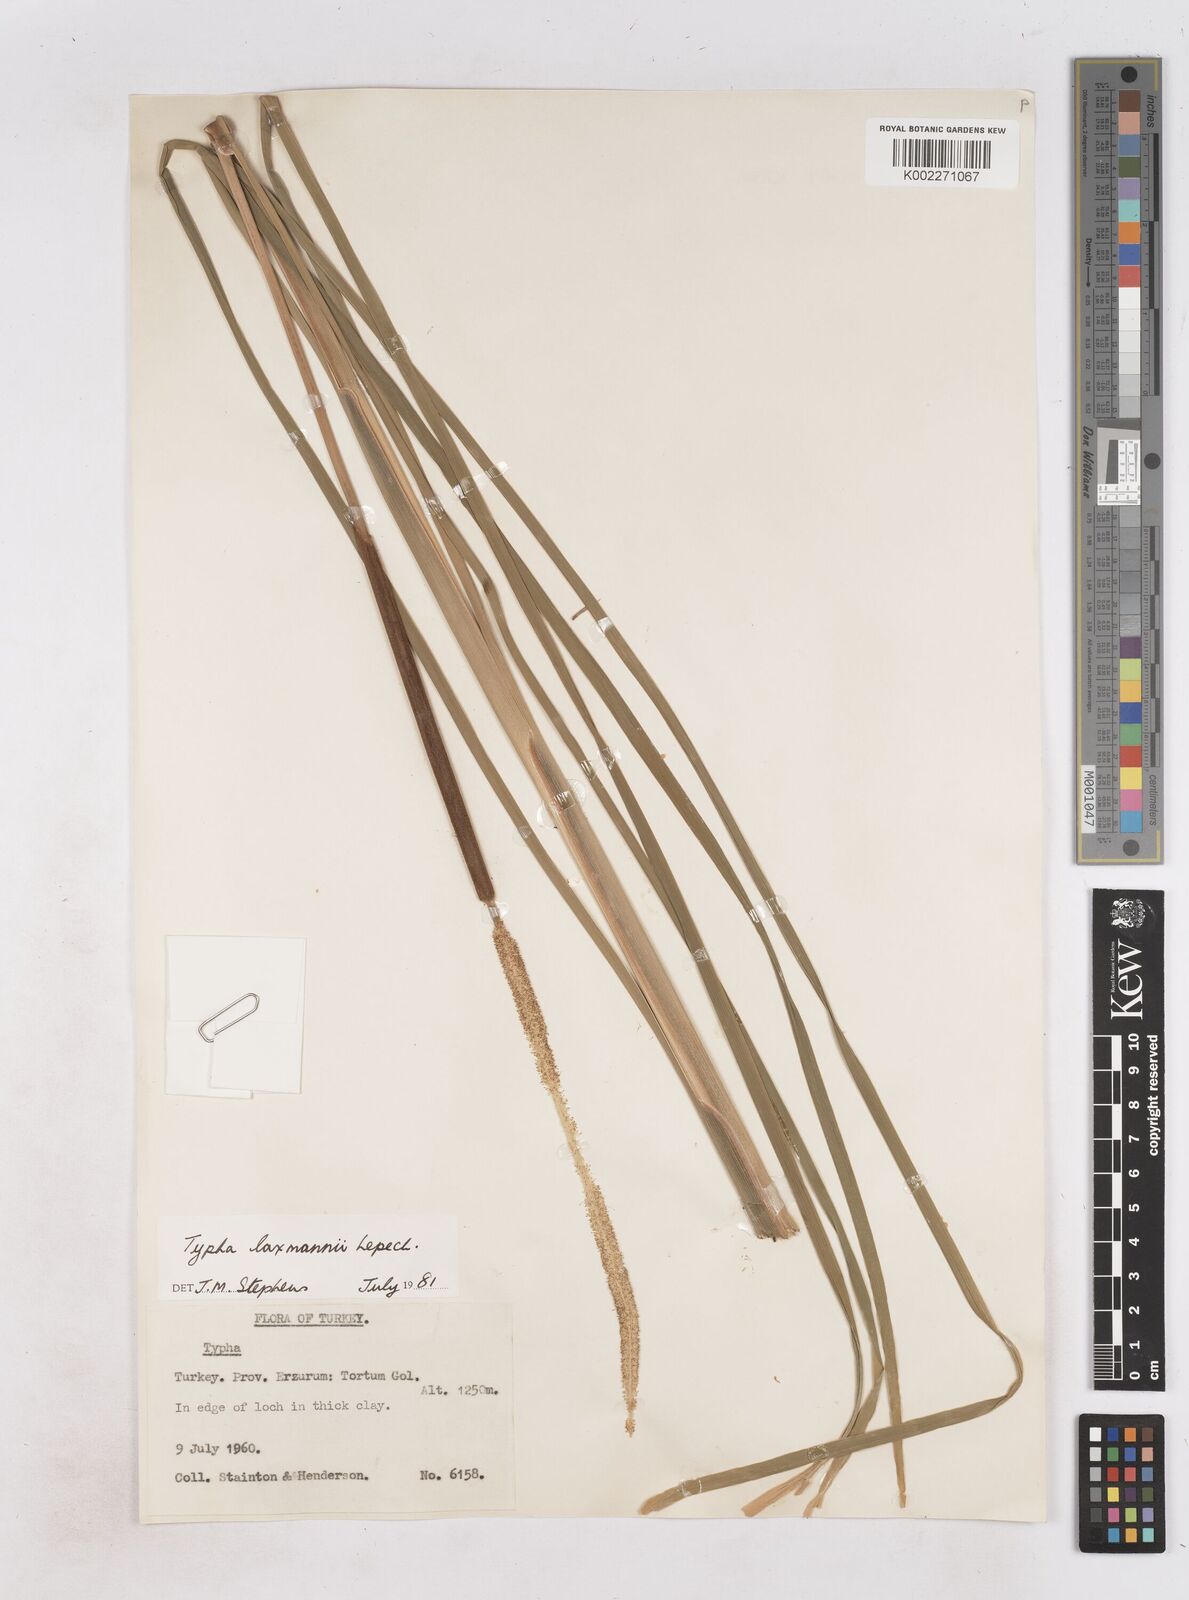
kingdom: Plantae
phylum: Tracheophyta
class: Liliopsida
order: Poales
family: Typhaceae
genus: Typha
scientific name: Typha laxmannii
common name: Laxman’s bulrush
